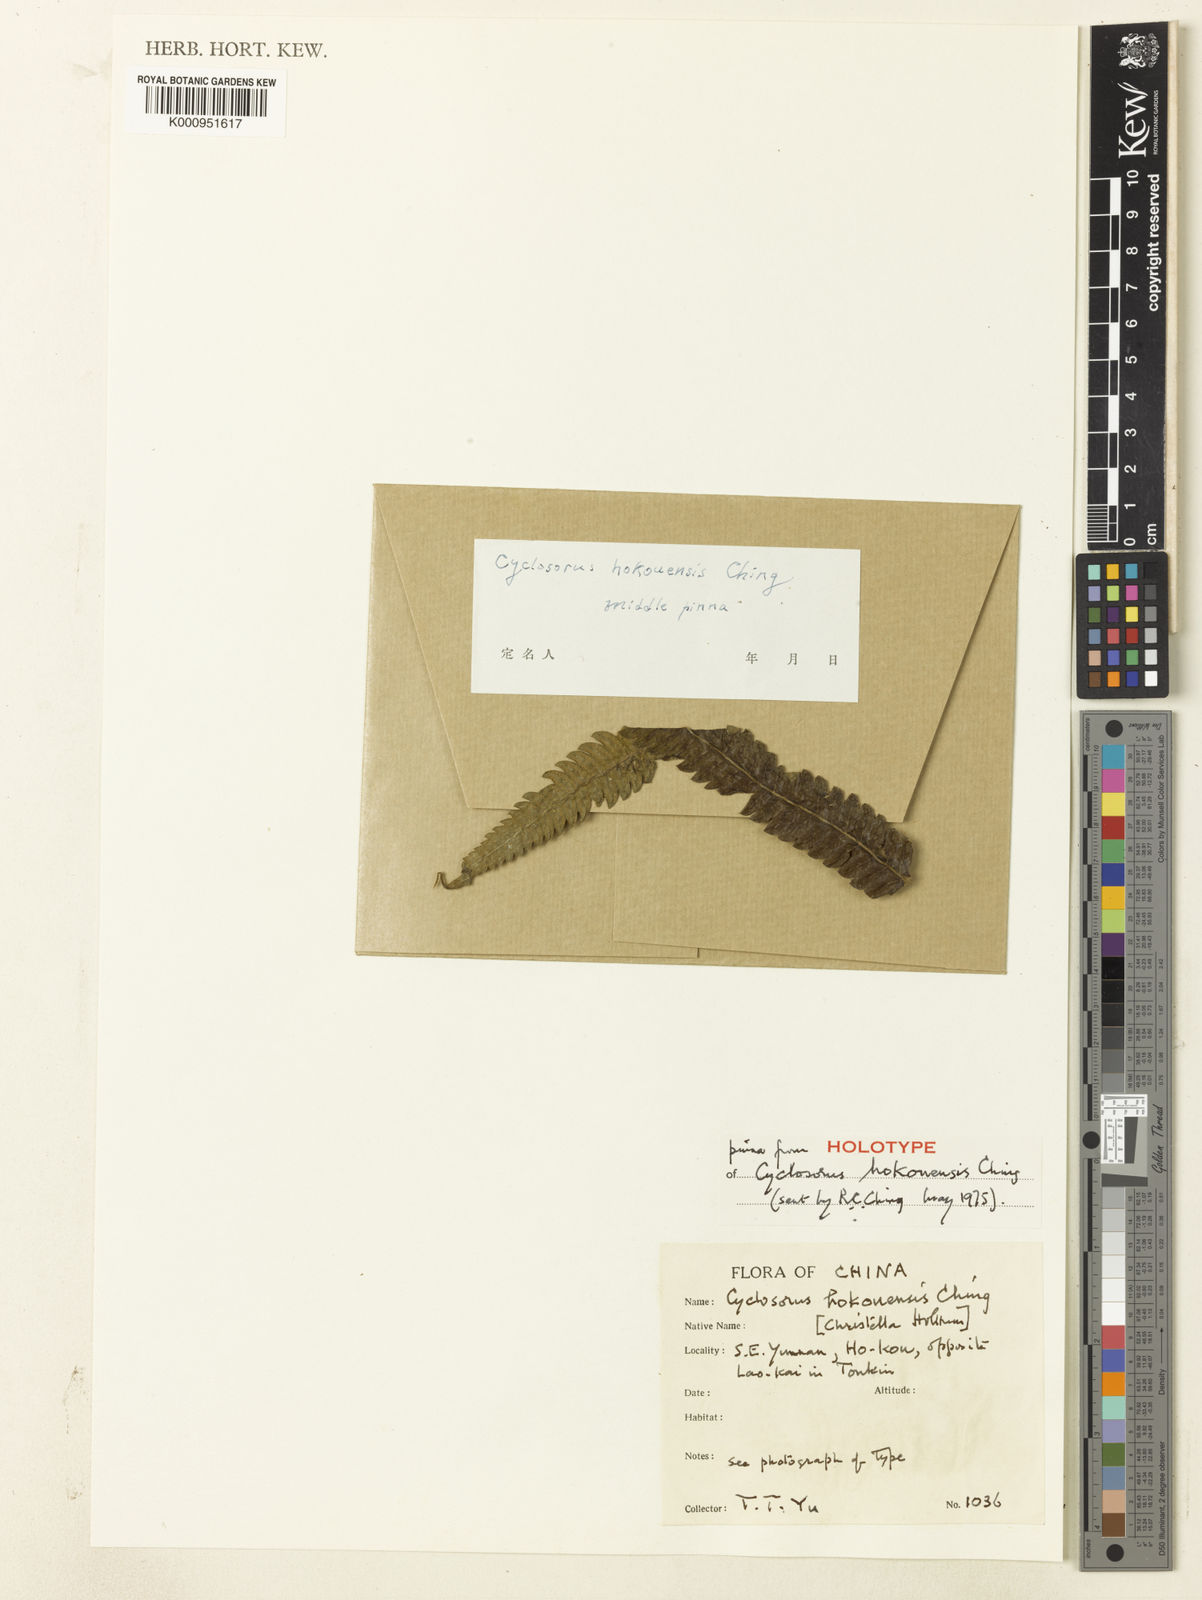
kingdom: Plantae
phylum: Tracheophyta
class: Polypodiopsida
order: Polypodiales
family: Thelypteridaceae
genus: Christella
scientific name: Christella hokouensis
